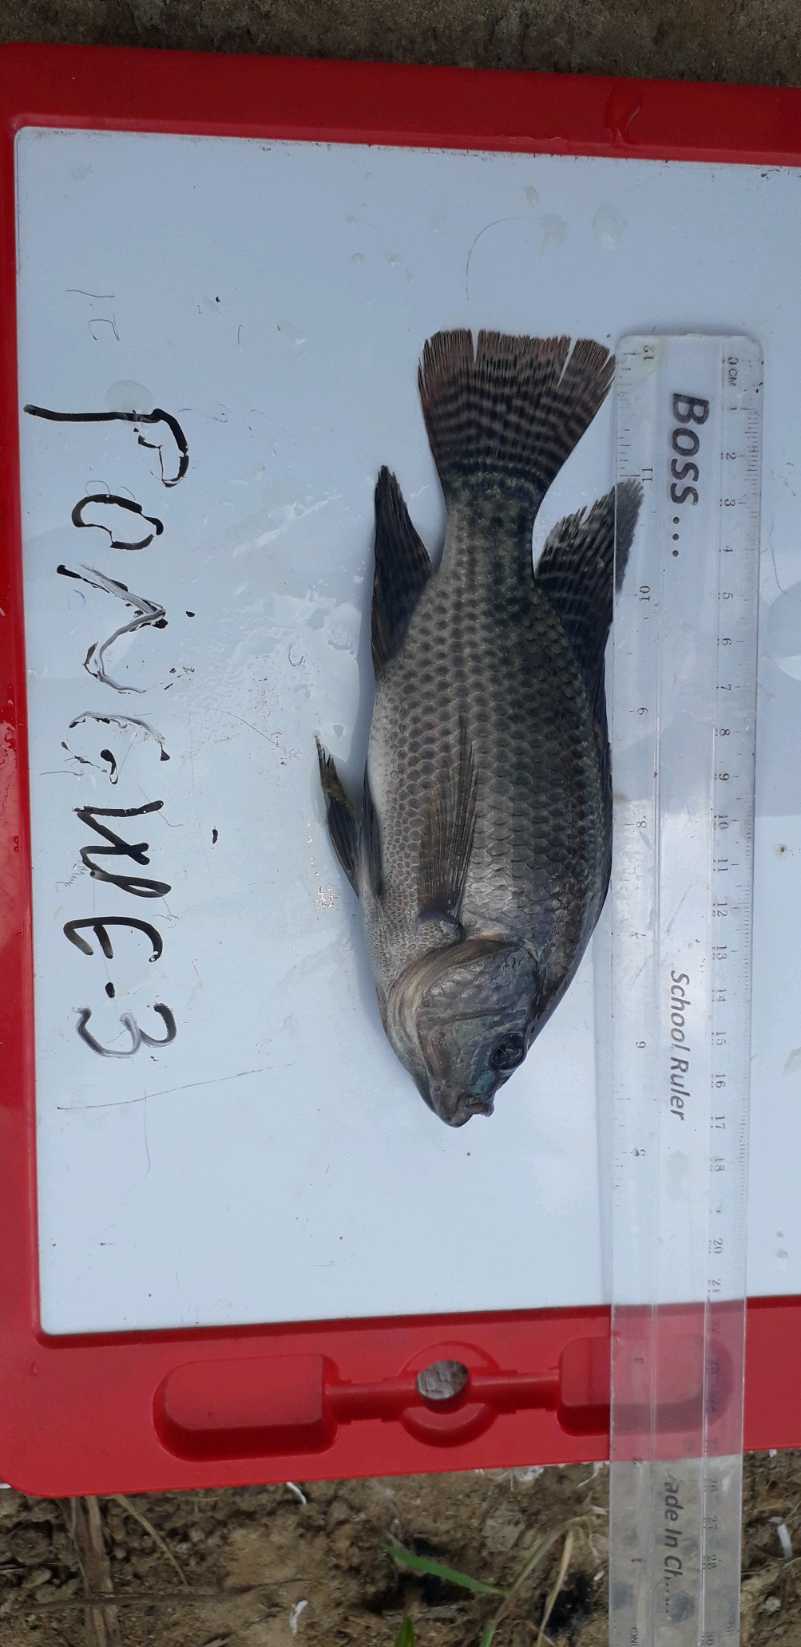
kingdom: Animalia
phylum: Chordata
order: Perciformes
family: Cichlidae
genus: Oreochromis
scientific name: Oreochromis niloticus
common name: Nile tilapia
